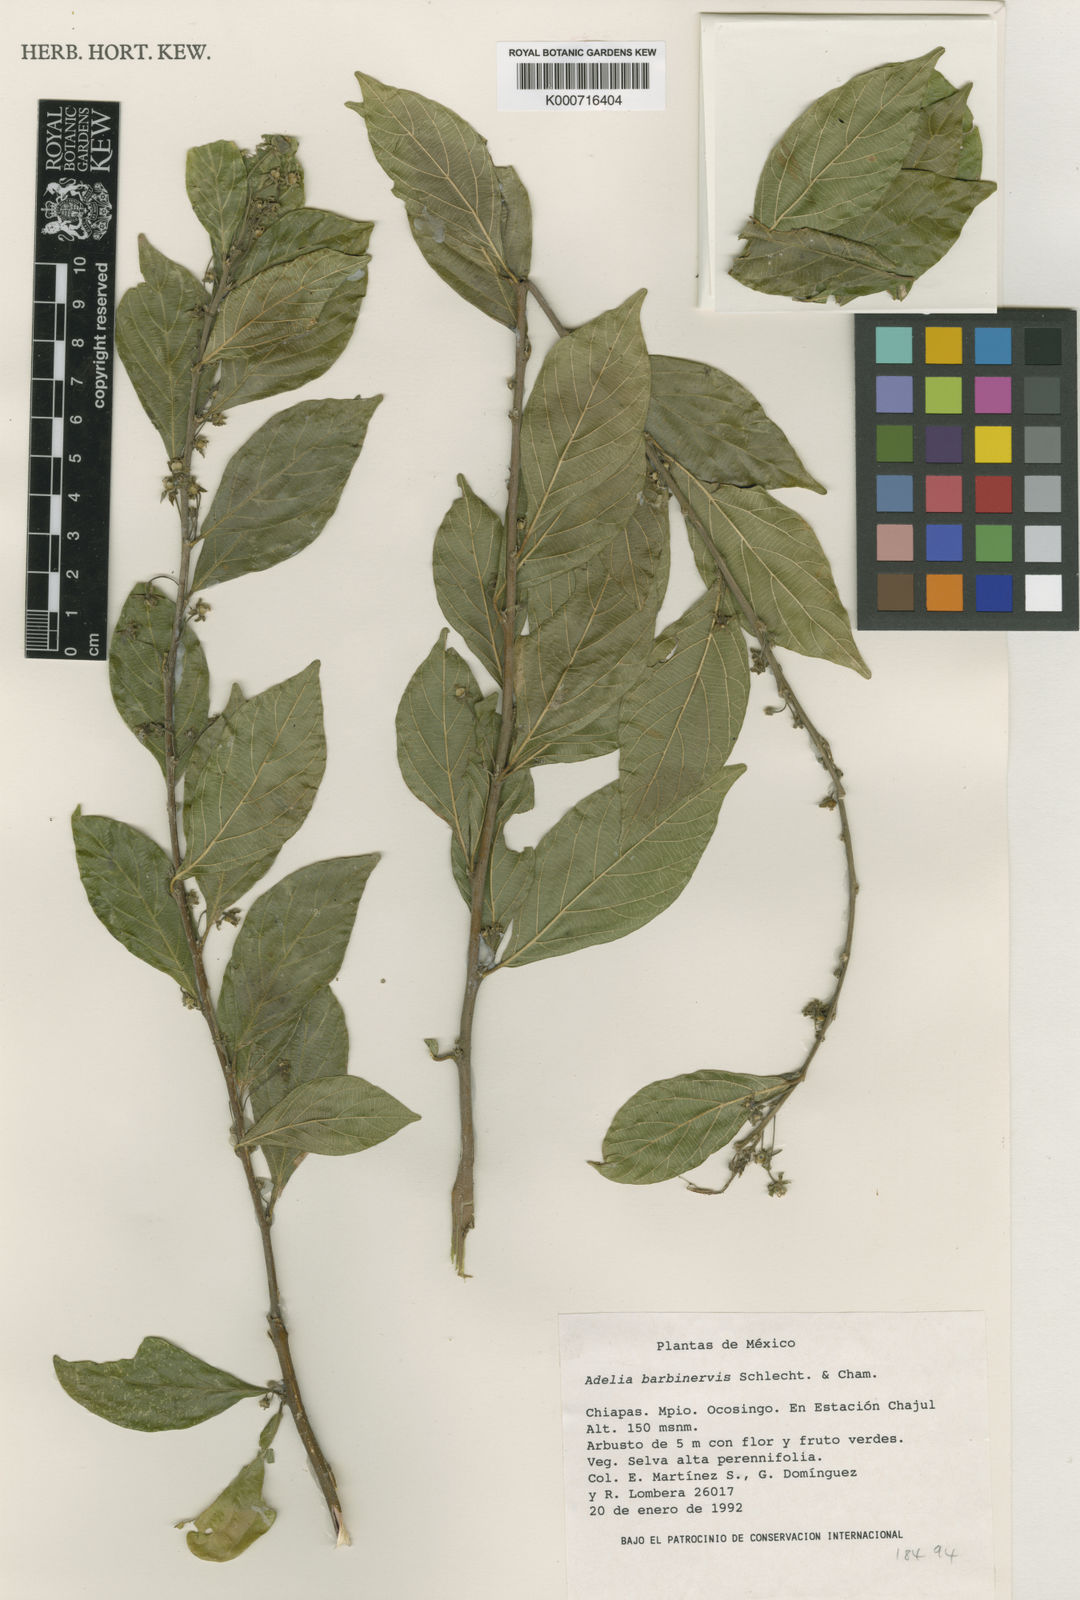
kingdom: Plantae
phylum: Tracheophyta
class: Magnoliopsida
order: Malpighiales
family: Euphorbiaceae
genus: Adelia
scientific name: Adelia barbinervis
